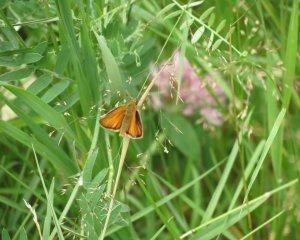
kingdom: Animalia
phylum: Arthropoda
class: Insecta
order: Lepidoptera
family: Hesperiidae
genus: Thymelicus
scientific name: Thymelicus lineola
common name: European Skipper
